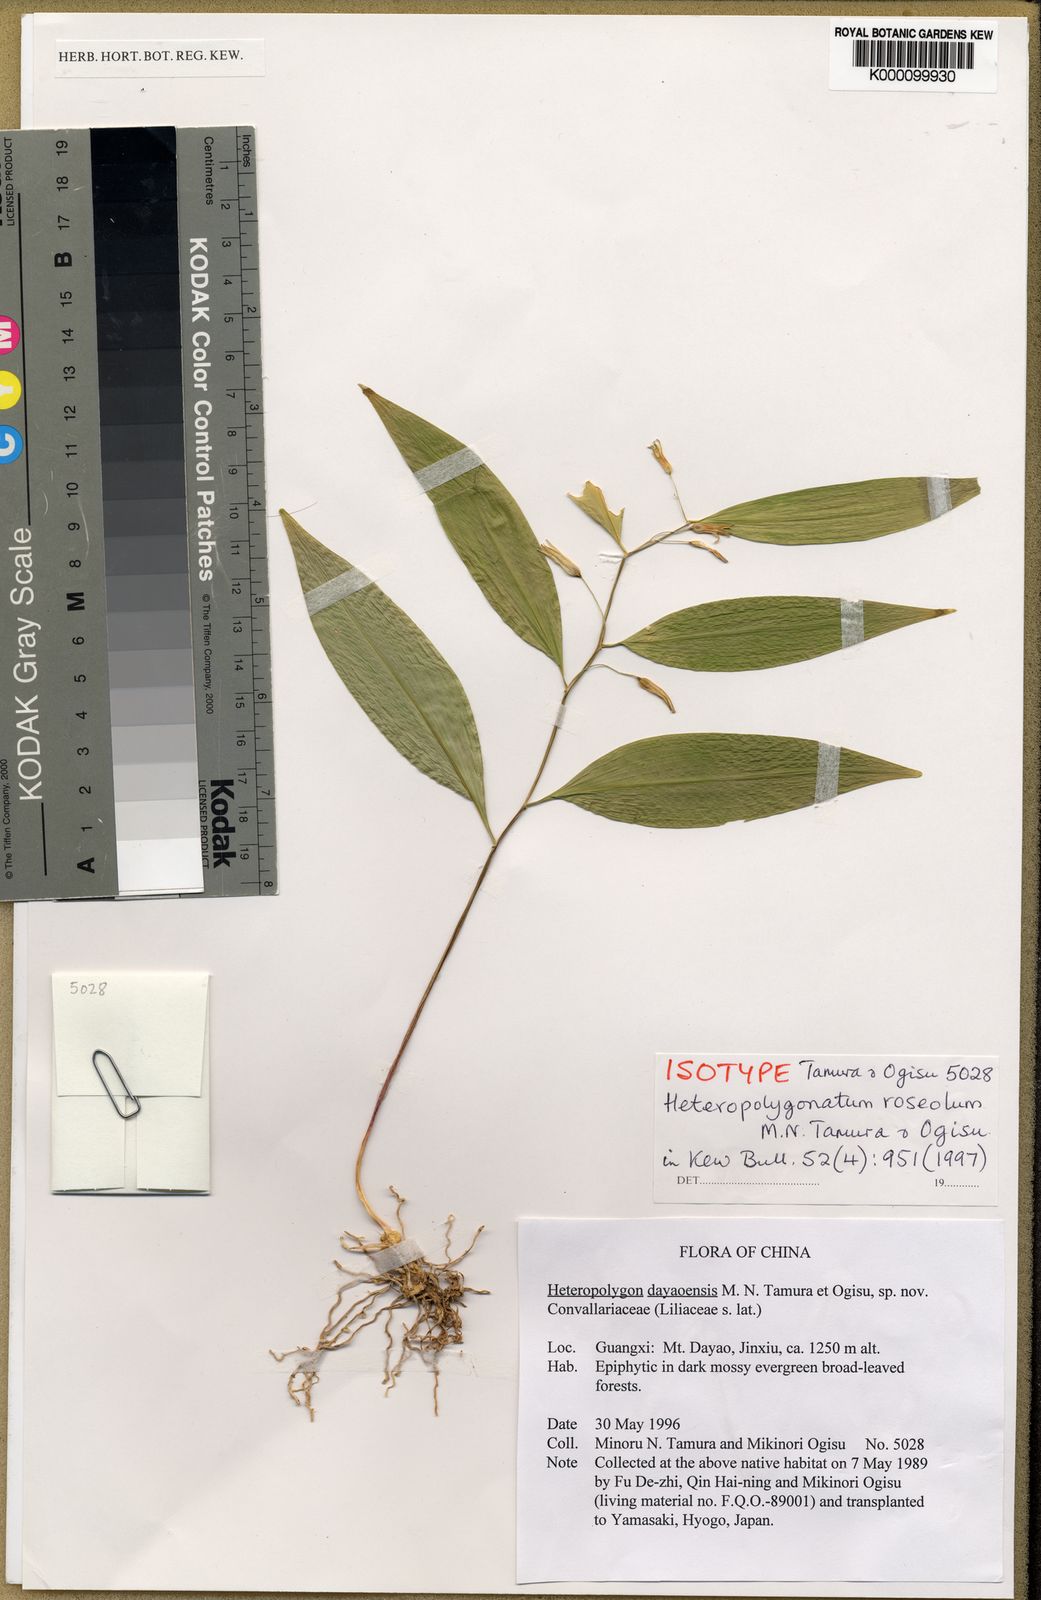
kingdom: Plantae
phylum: Tracheophyta
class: Liliopsida
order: Asparagales
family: Asparagaceae
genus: Heteropolygonatum
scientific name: Heteropolygonatum roseolum
